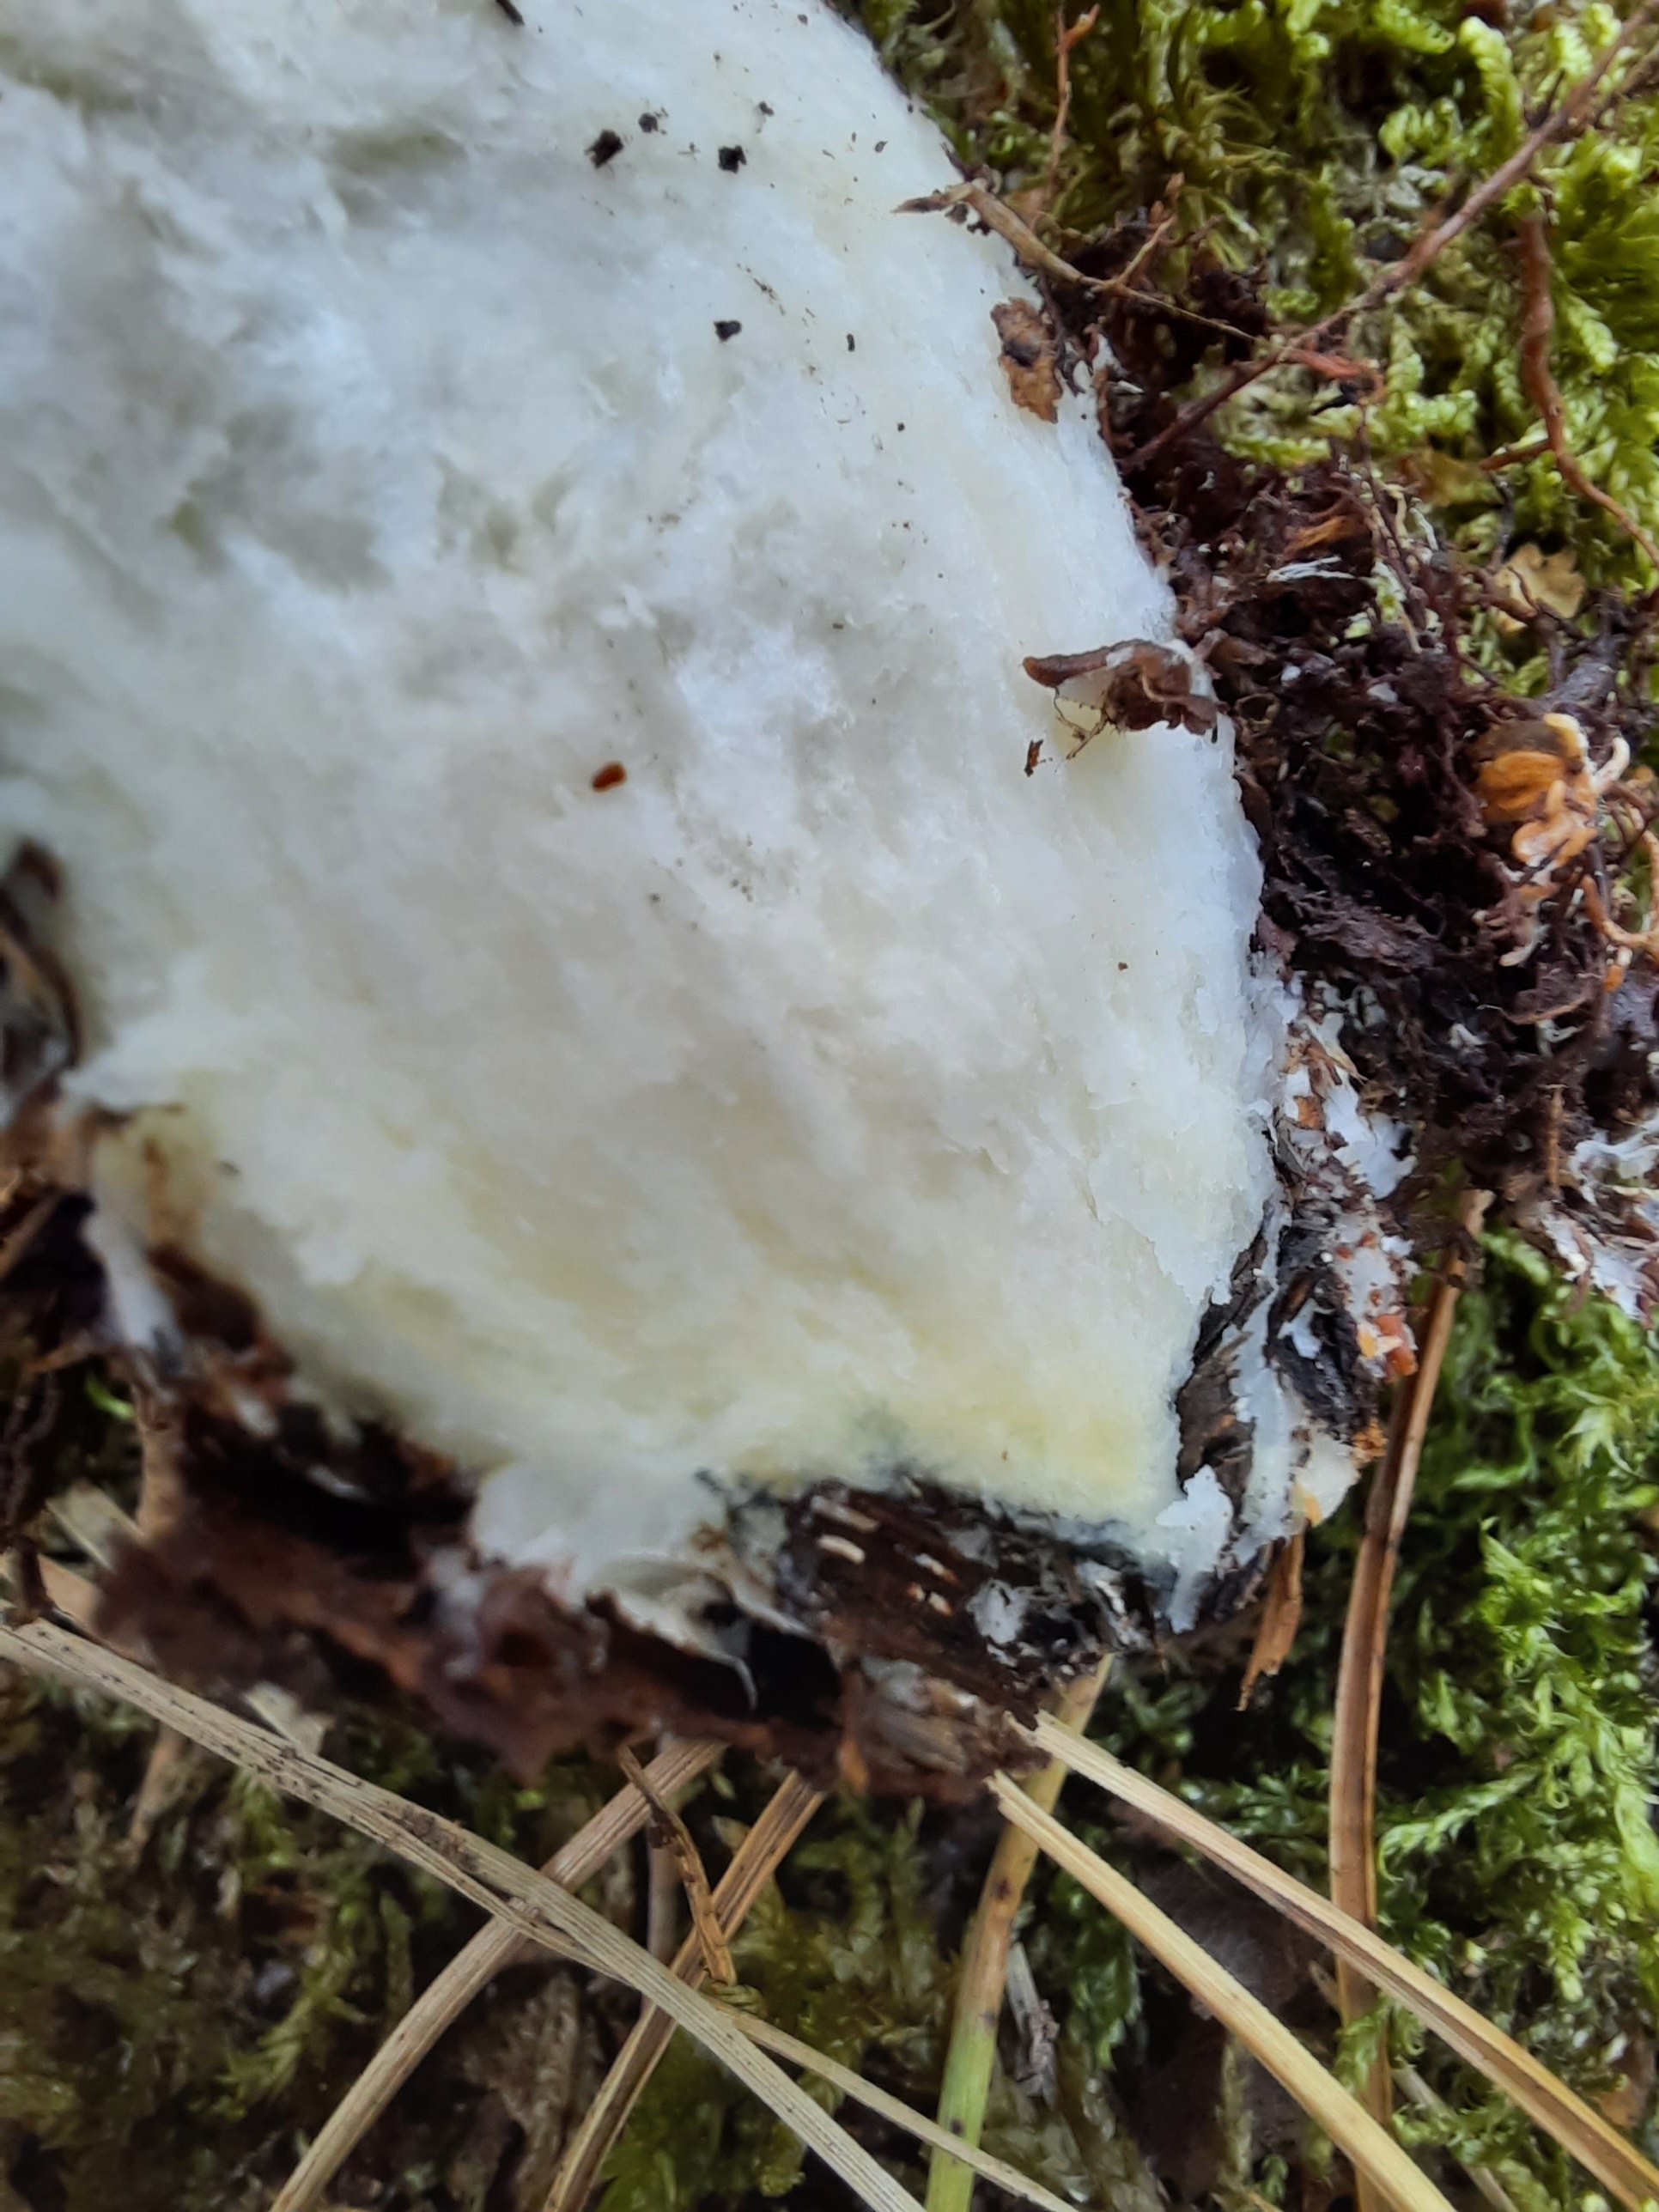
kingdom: Fungi
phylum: Basidiomycota
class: Agaricomycetes
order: Boletales
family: Boletaceae
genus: Leccinum
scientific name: Leccinum cyaneobasileucum
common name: almindelig skælrørhat
